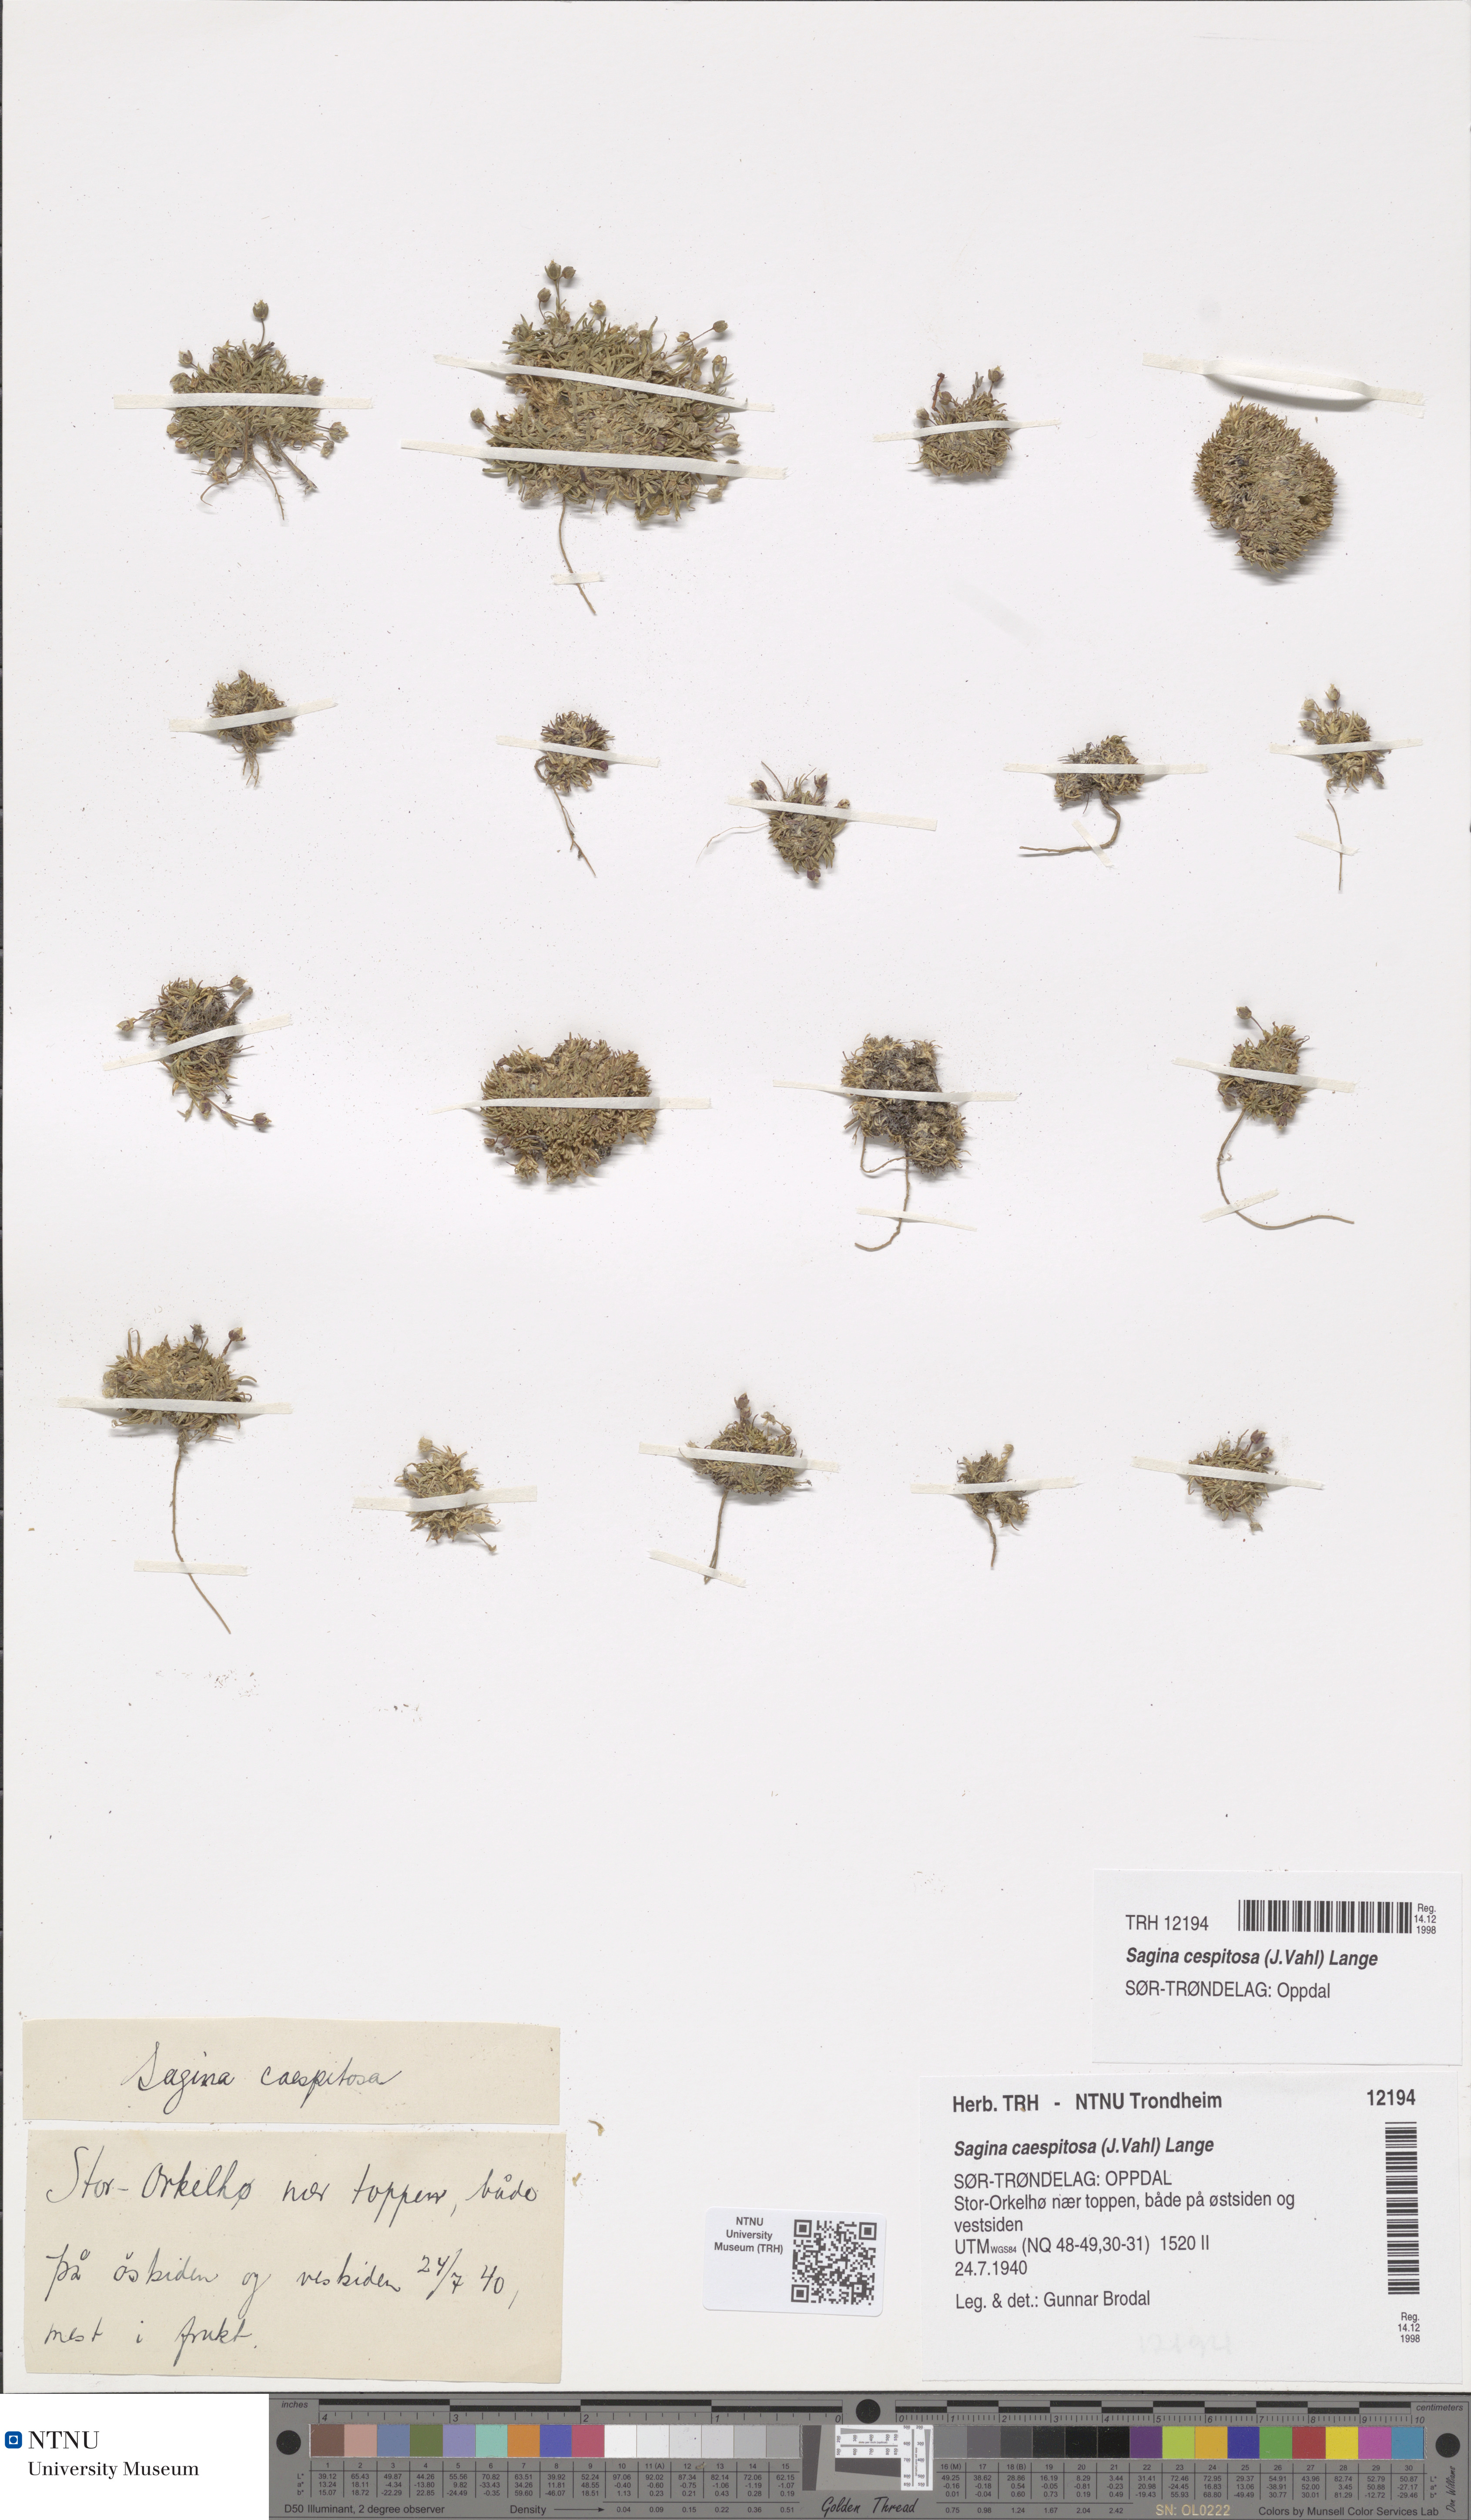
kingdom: Plantae
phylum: Tracheophyta
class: Magnoliopsida
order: Caryophyllales
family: Caryophyllaceae
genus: Sagina
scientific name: Sagina caespitosa
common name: Tufted pearlwort
